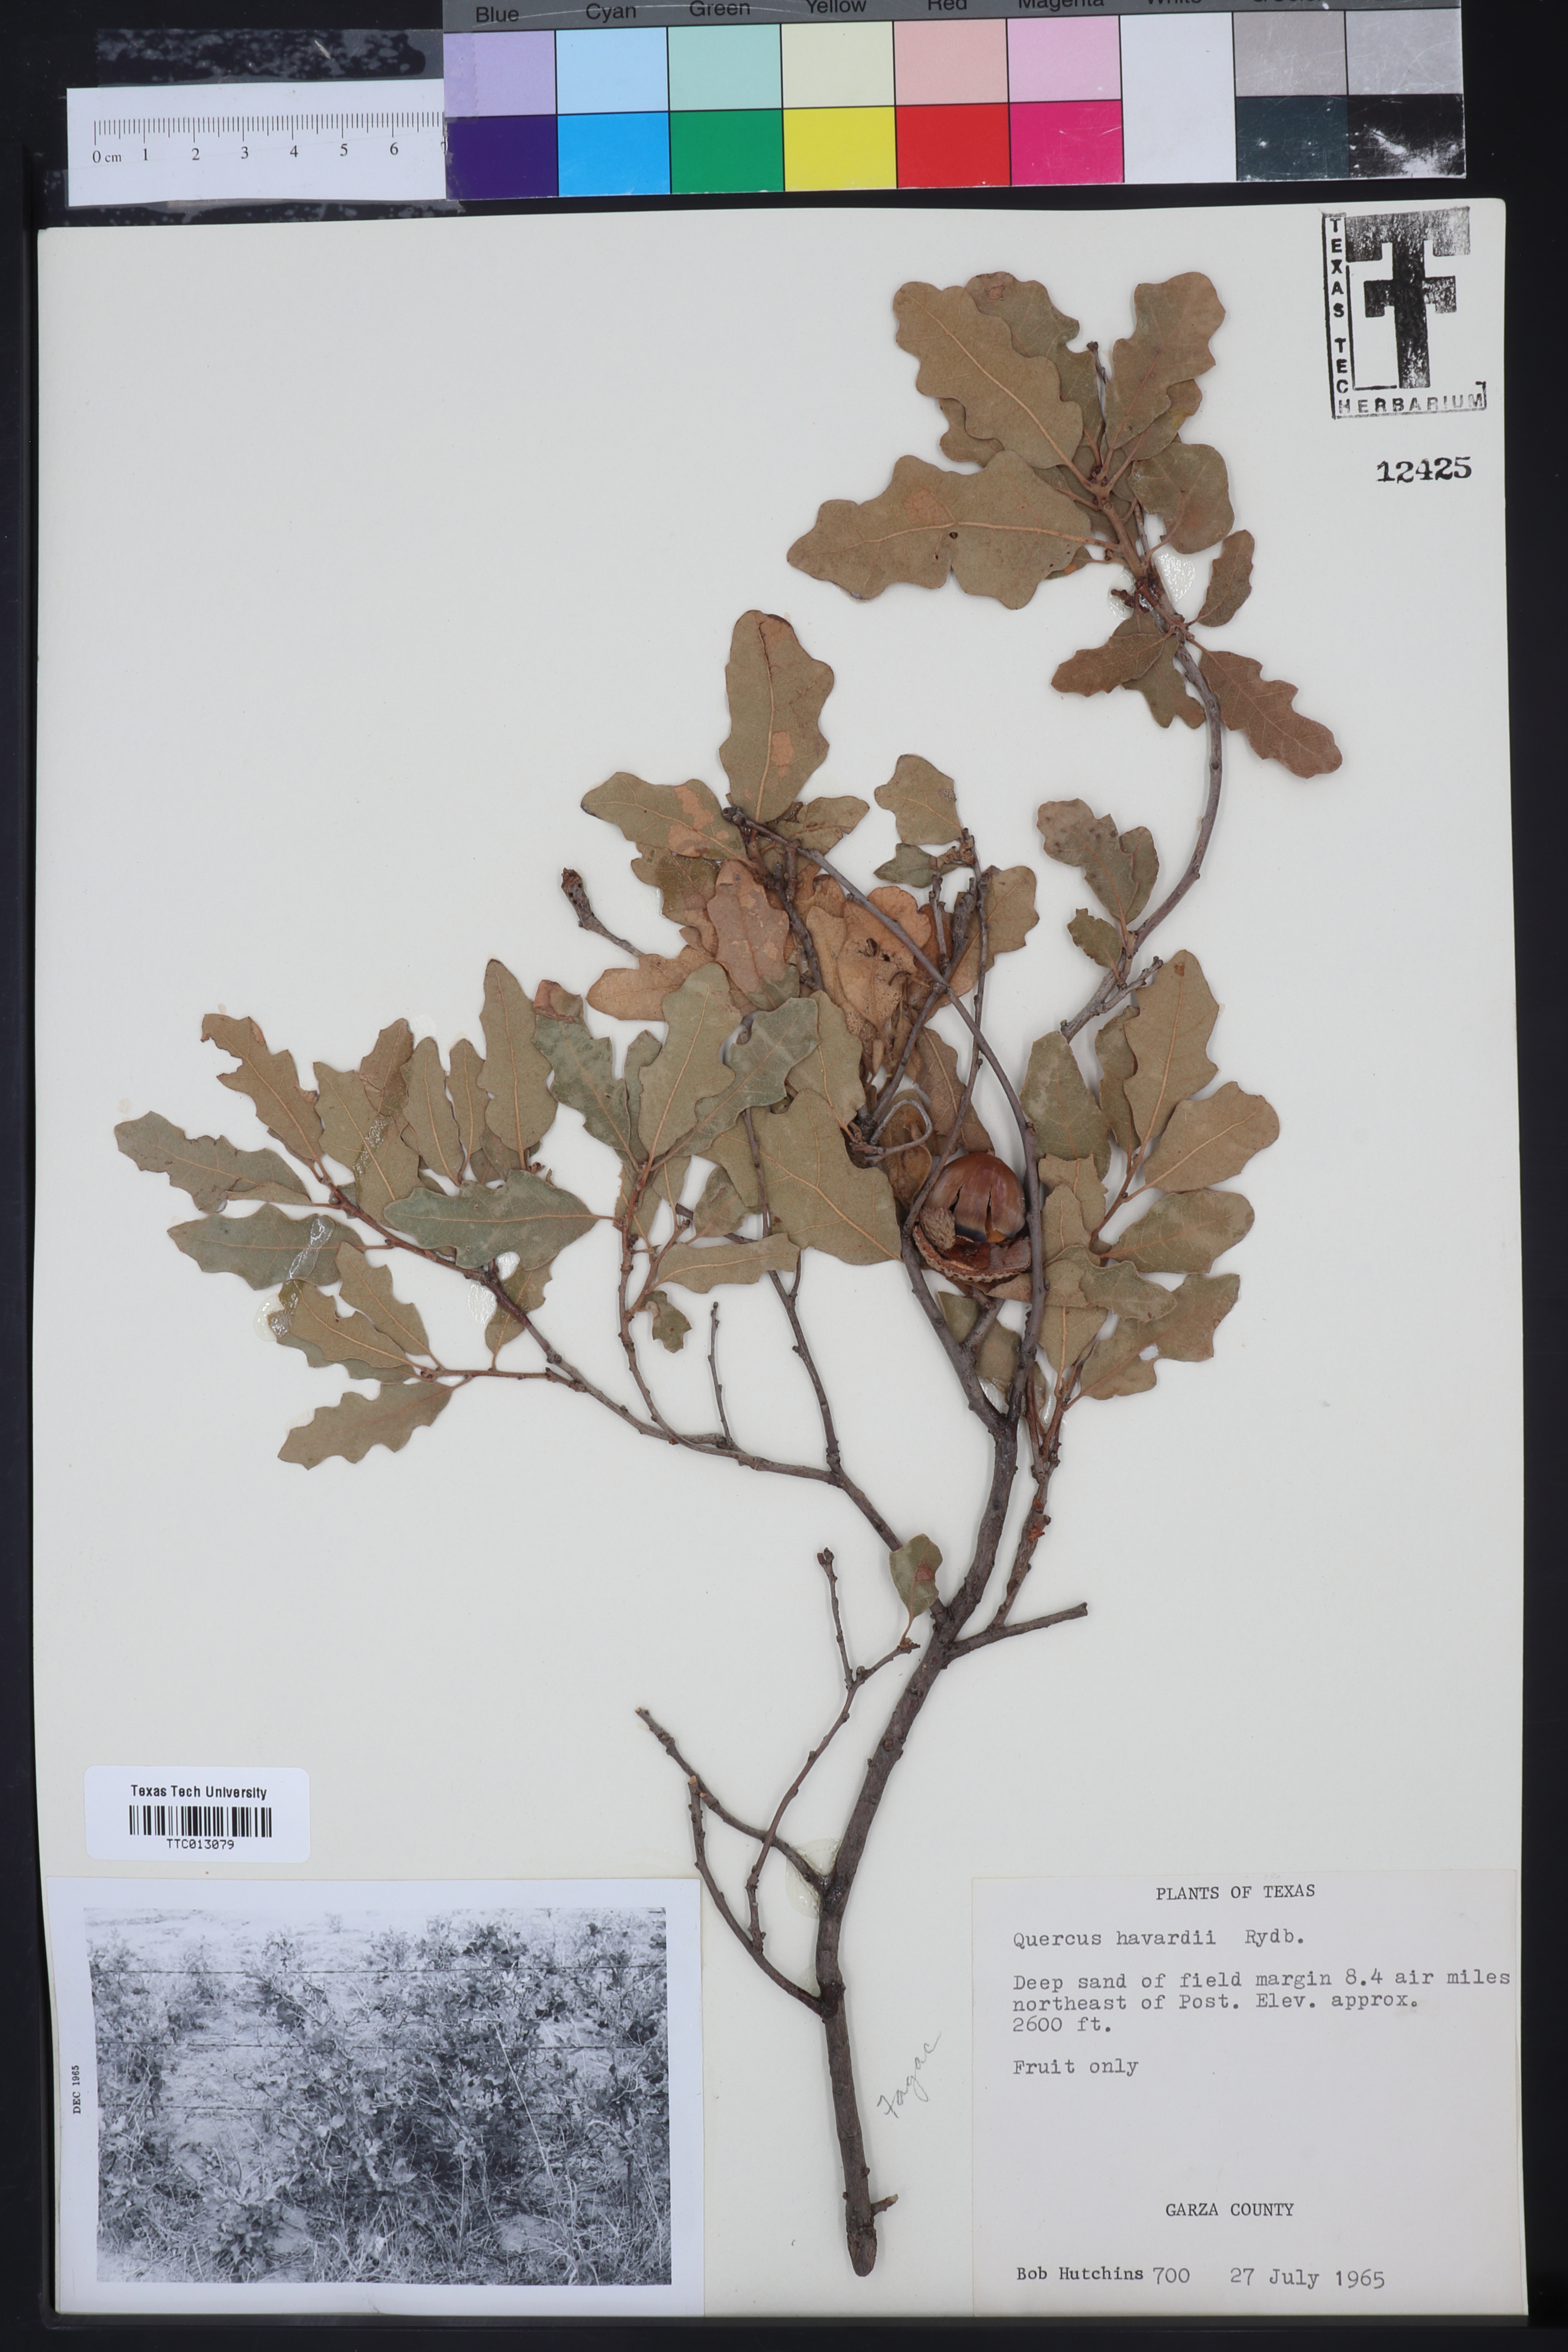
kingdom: Plantae
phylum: Tracheophyta
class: Magnoliopsida
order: Fagales
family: Fagaceae
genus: Quercus
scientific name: Quercus havardii
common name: Shinnery oak
